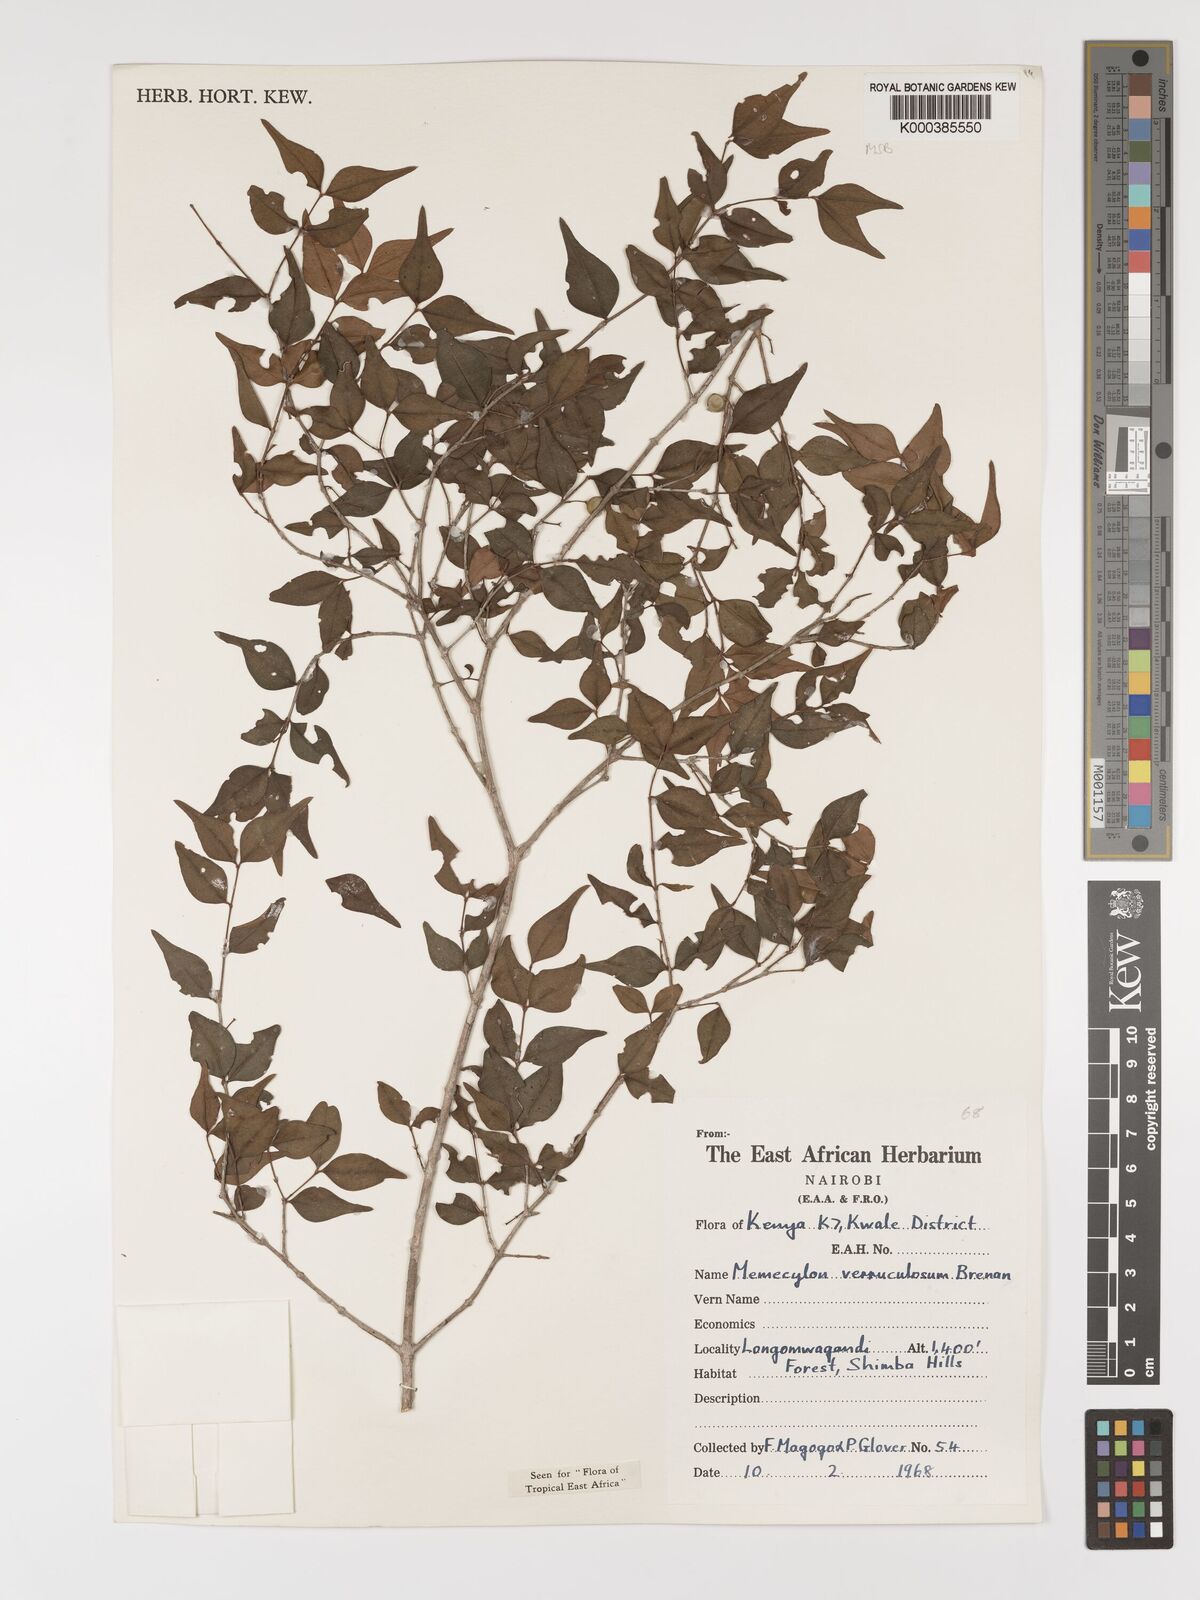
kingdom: Plantae
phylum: Tracheophyta
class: Magnoliopsida
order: Myrtales
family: Melastomataceae
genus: Memecylon
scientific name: Memecylon verruculosum
